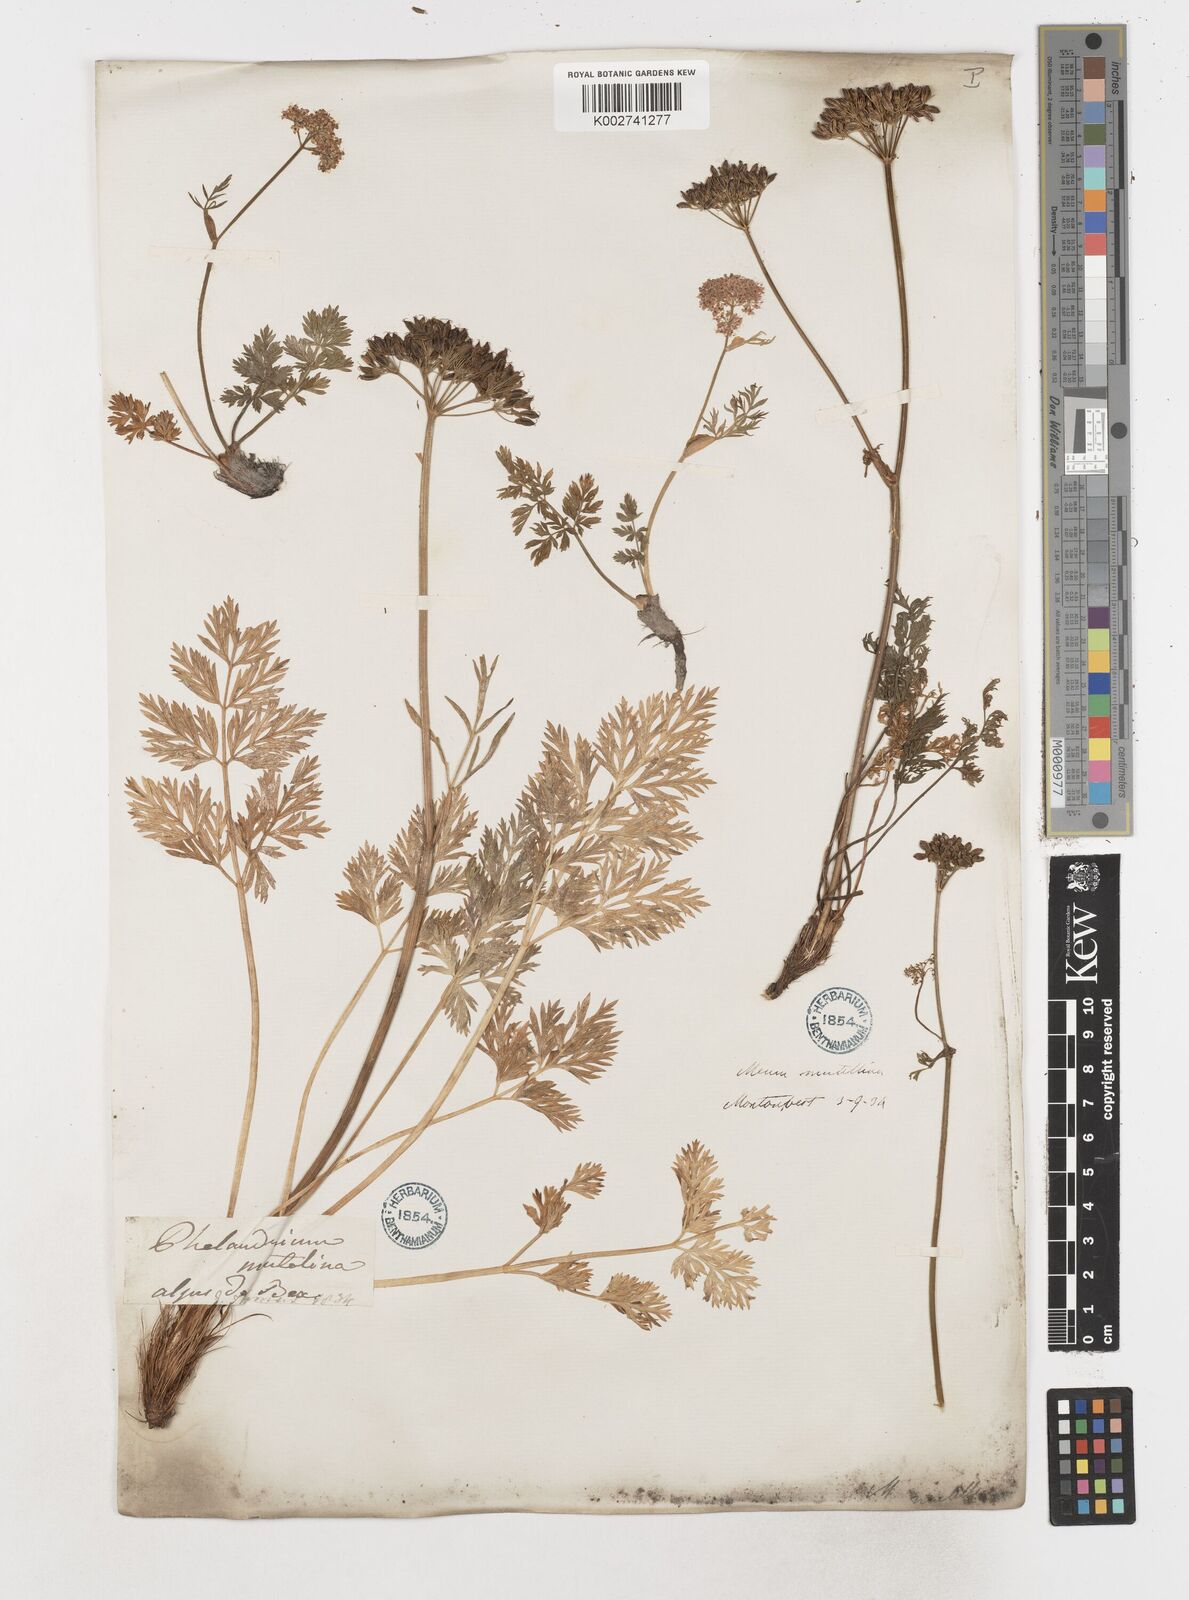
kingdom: Plantae
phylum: Tracheophyta
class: Magnoliopsida
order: Apiales
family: Apiaceae
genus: Mutellina
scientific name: Mutellina adonidifolia
